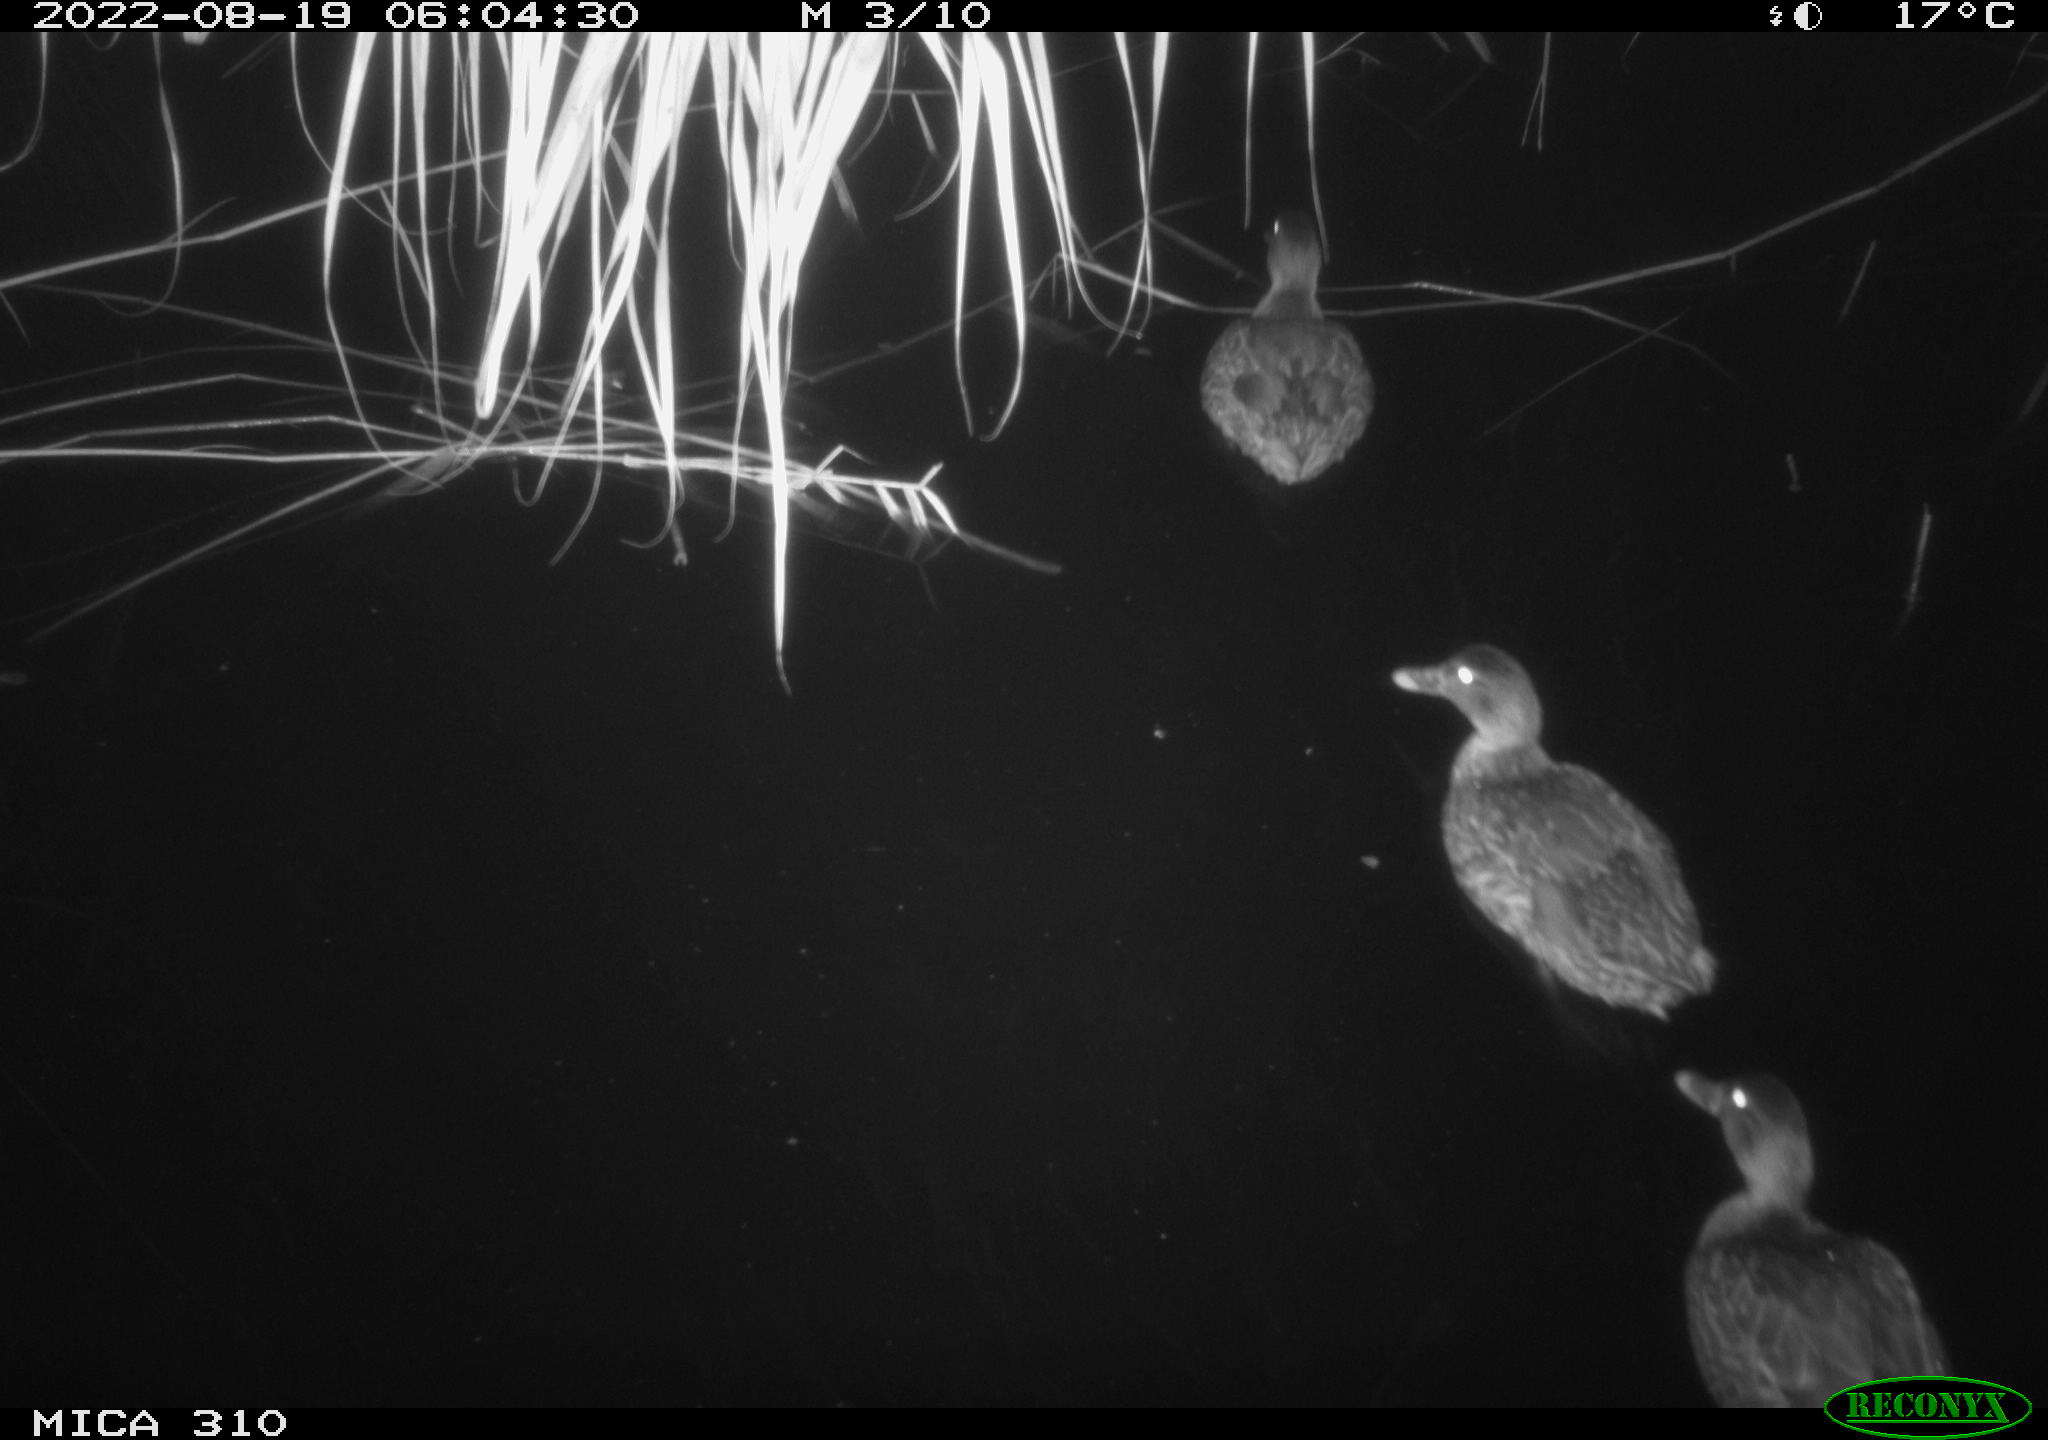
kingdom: Animalia
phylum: Chordata
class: Aves
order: Anseriformes
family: Anatidae
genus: Anas
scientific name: Anas platyrhynchos
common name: Mallard
